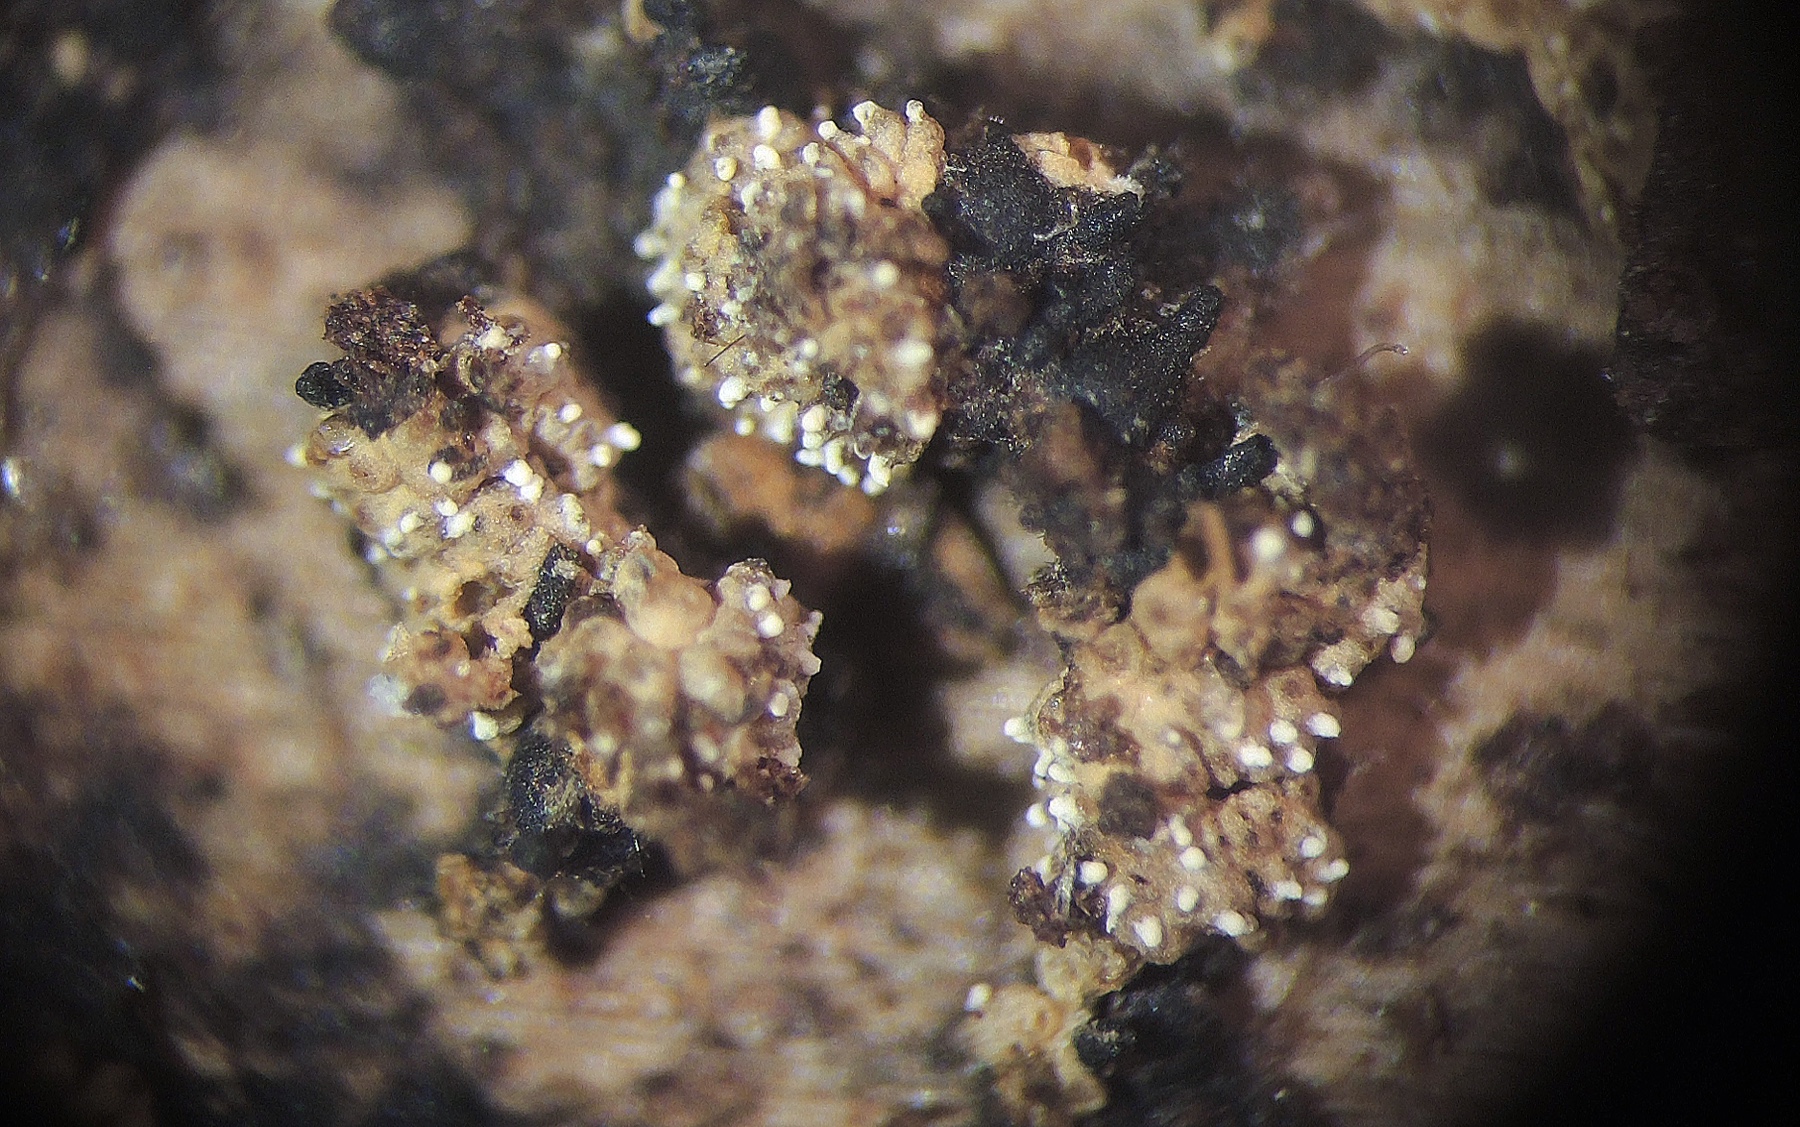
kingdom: Fungi
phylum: Ascomycota
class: Sordariomycetes
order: Hypocreales
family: Hypocreaceae
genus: Trichoderma
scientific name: Trichoderma albolutescens
